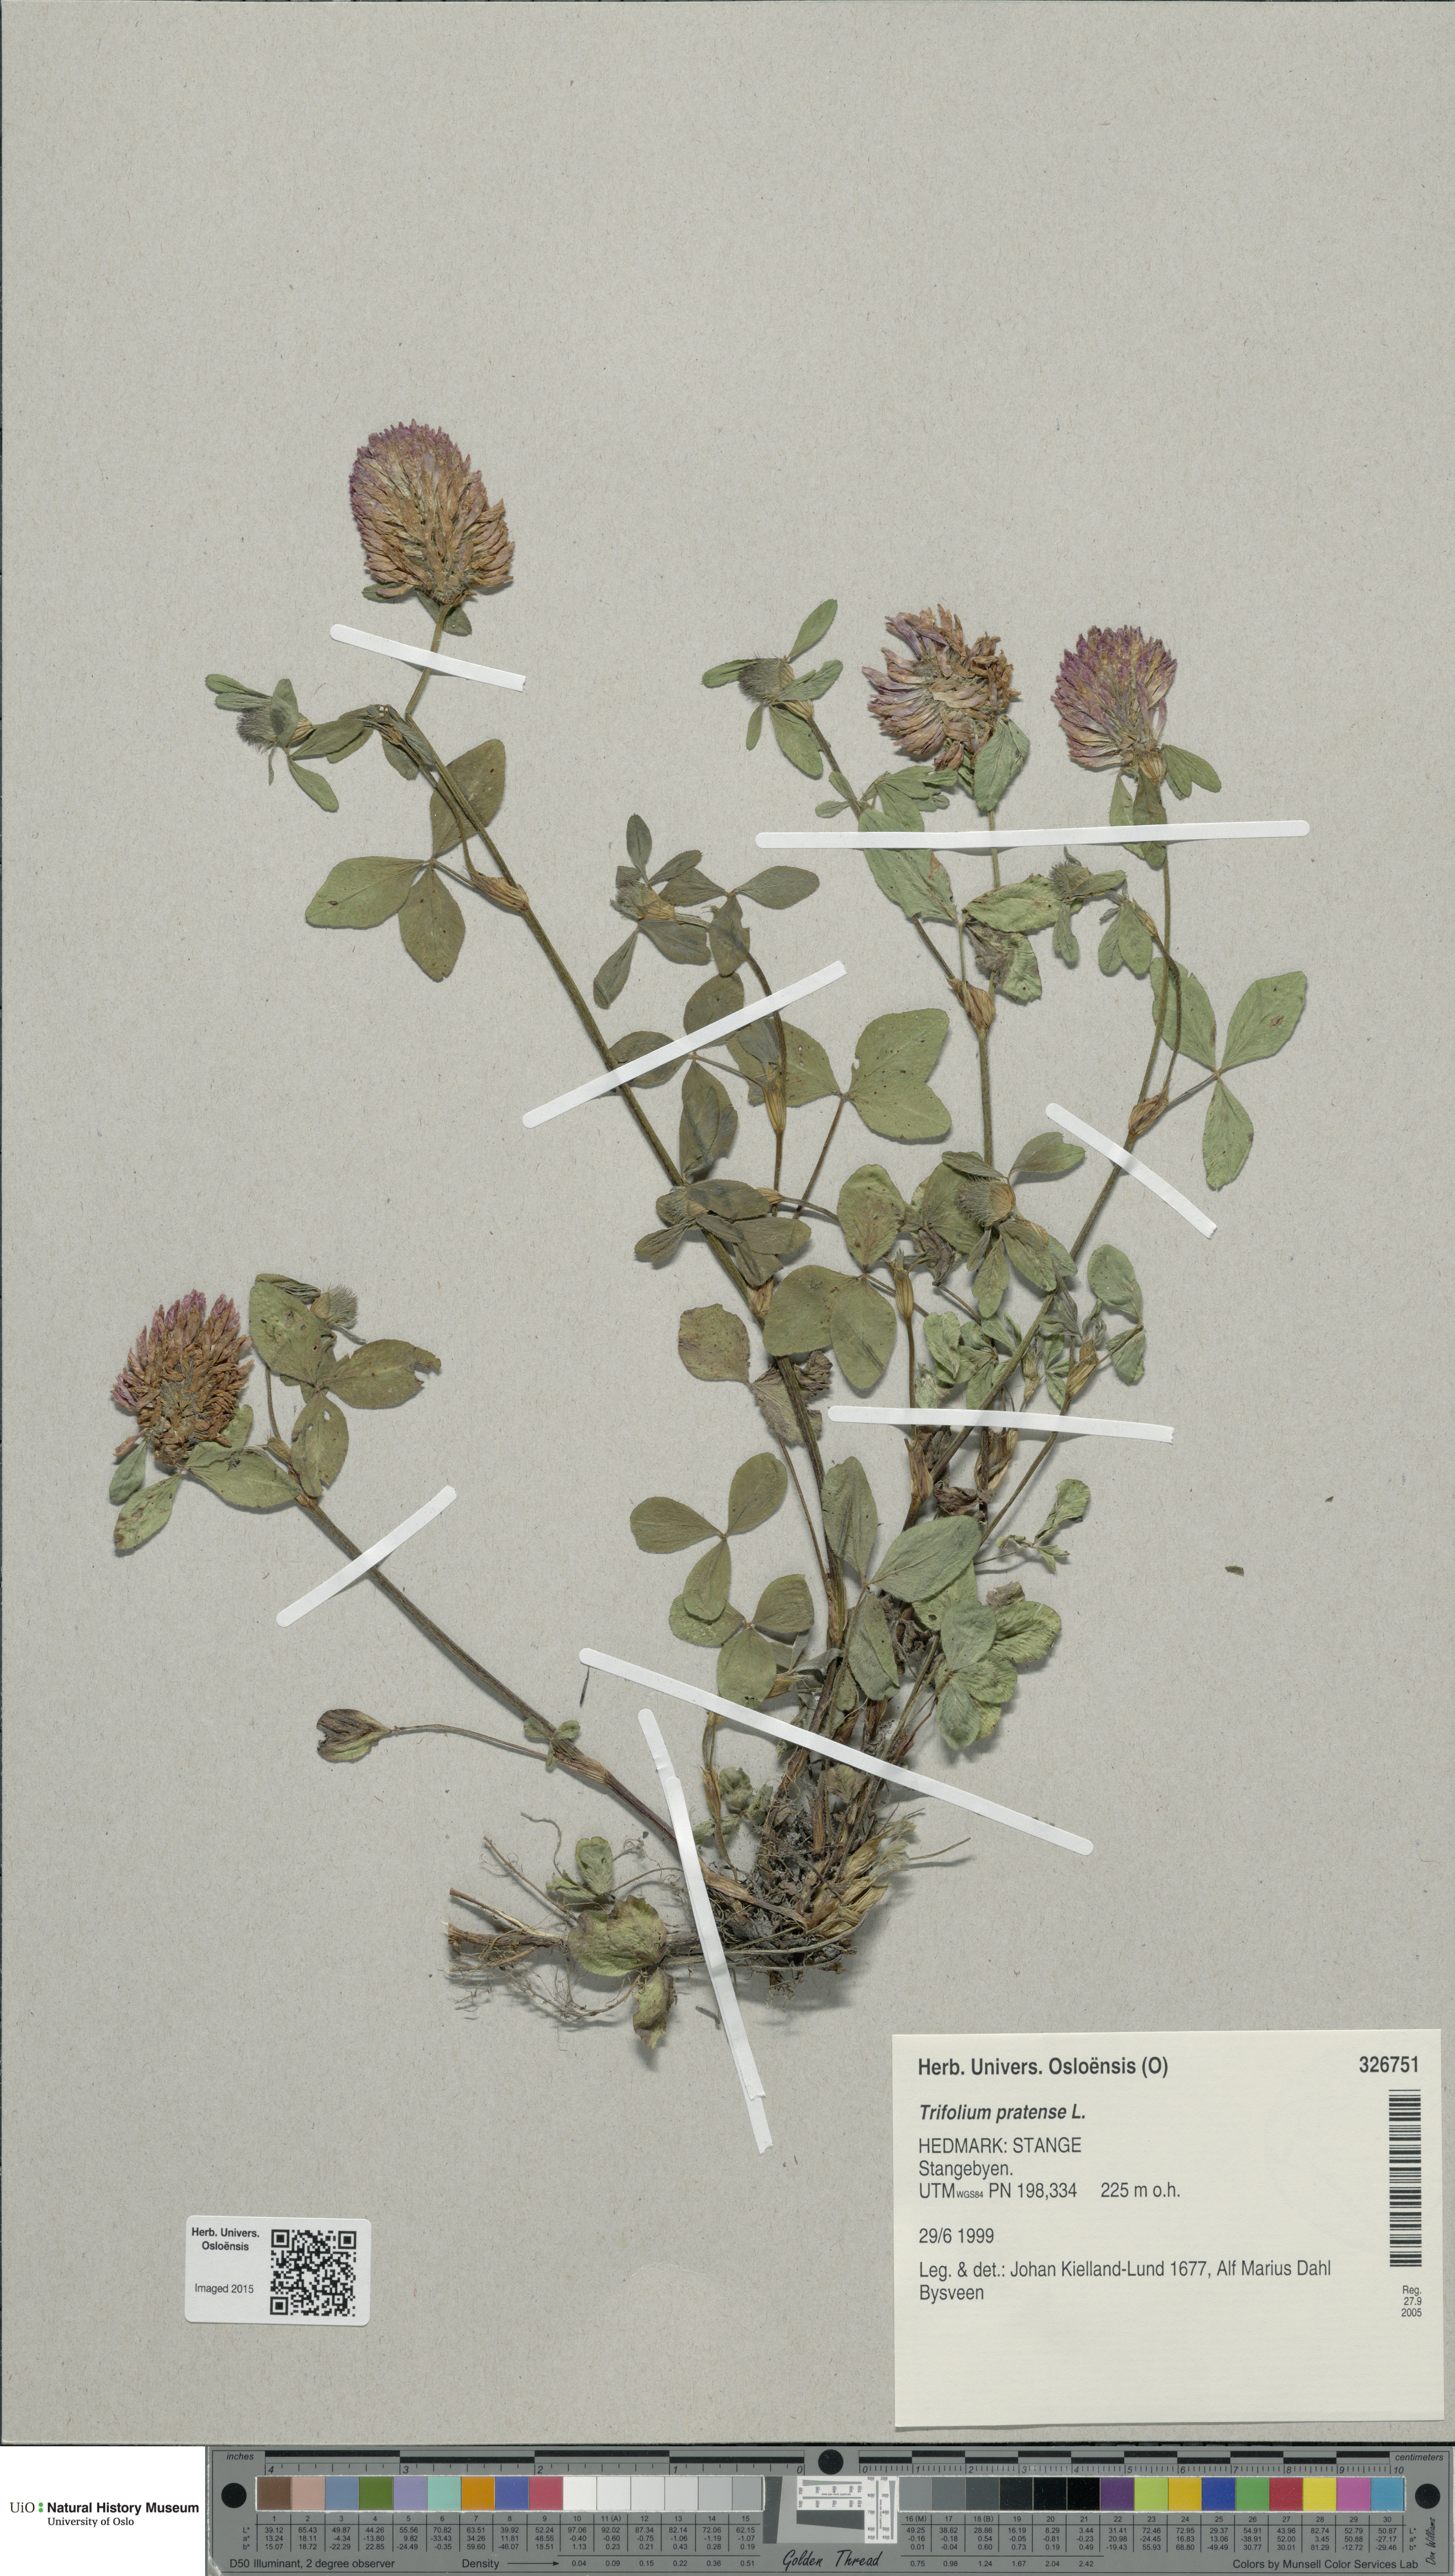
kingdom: Plantae
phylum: Tracheophyta
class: Magnoliopsida
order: Fabales
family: Fabaceae
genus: Trifolium
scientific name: Trifolium pratense
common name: Red clover
